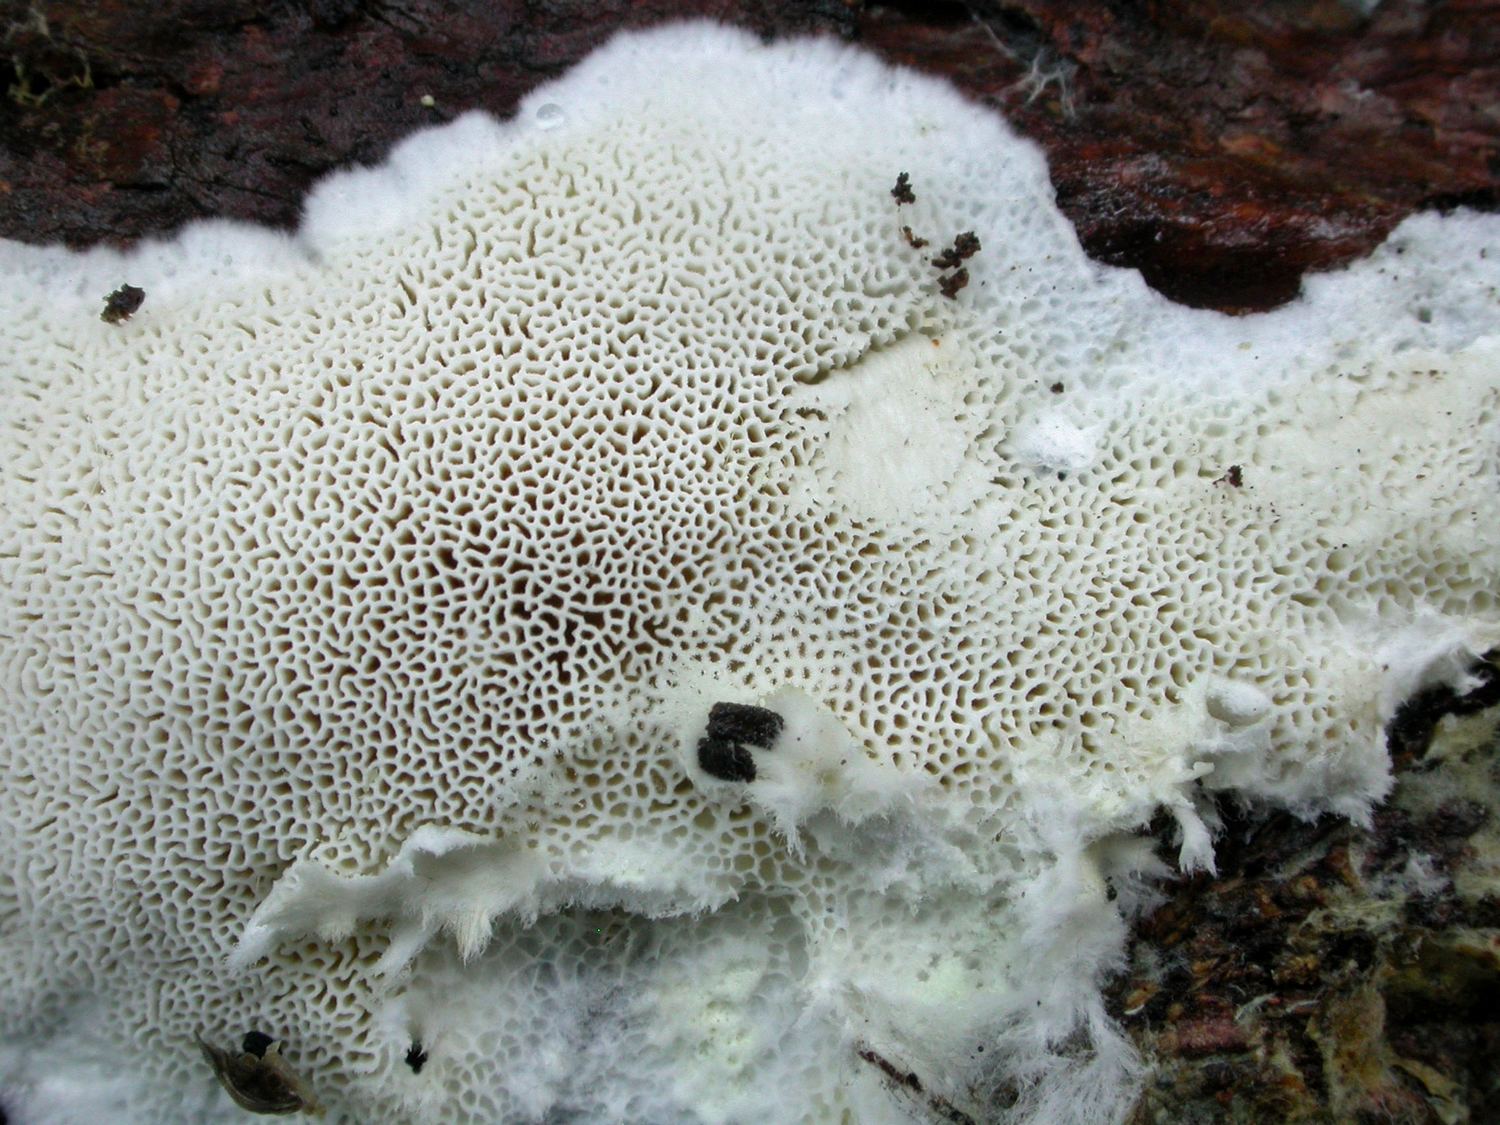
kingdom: Fungi
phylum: Basidiomycota
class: Agaricomycetes
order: Polyporales
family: Dacryobolaceae
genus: Oligoporus
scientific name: Oligoporus rennyi
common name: pudret kødporesvamp
